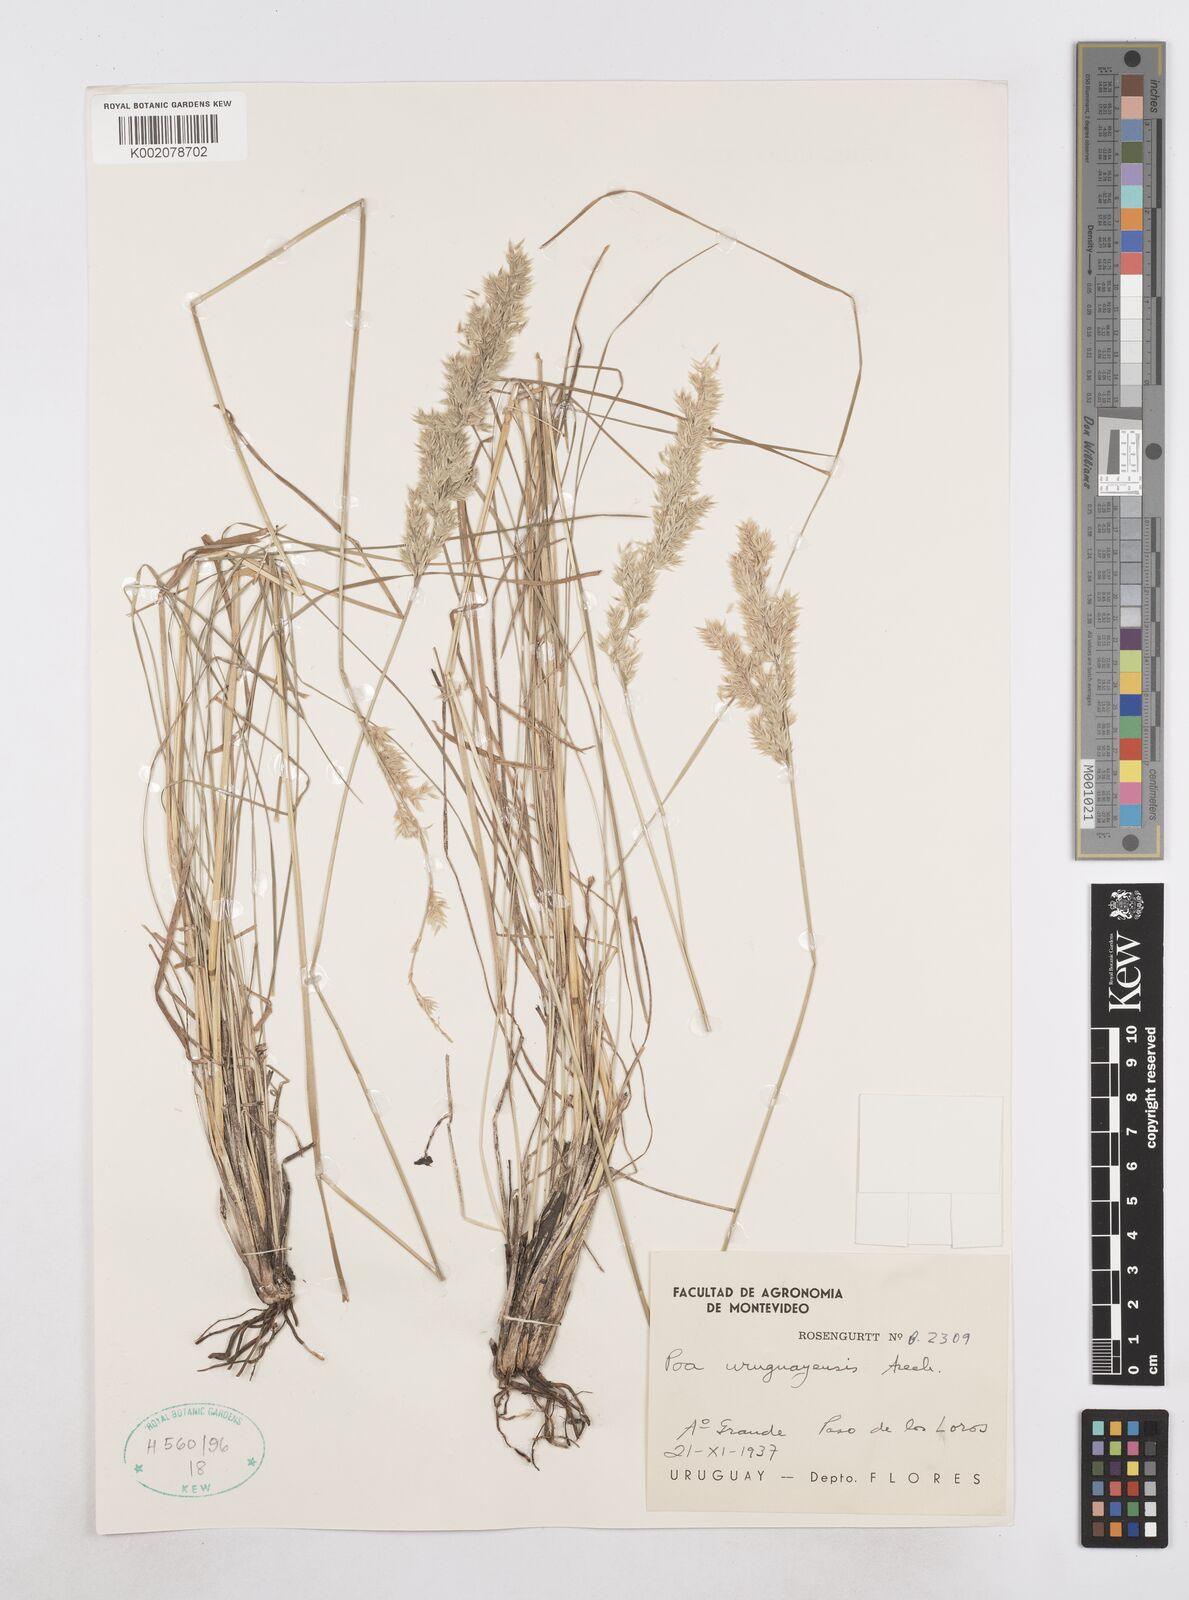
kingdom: Plantae
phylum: Tracheophyta
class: Liliopsida
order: Poales
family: Poaceae
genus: Poa
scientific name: Poa uruguayensis
